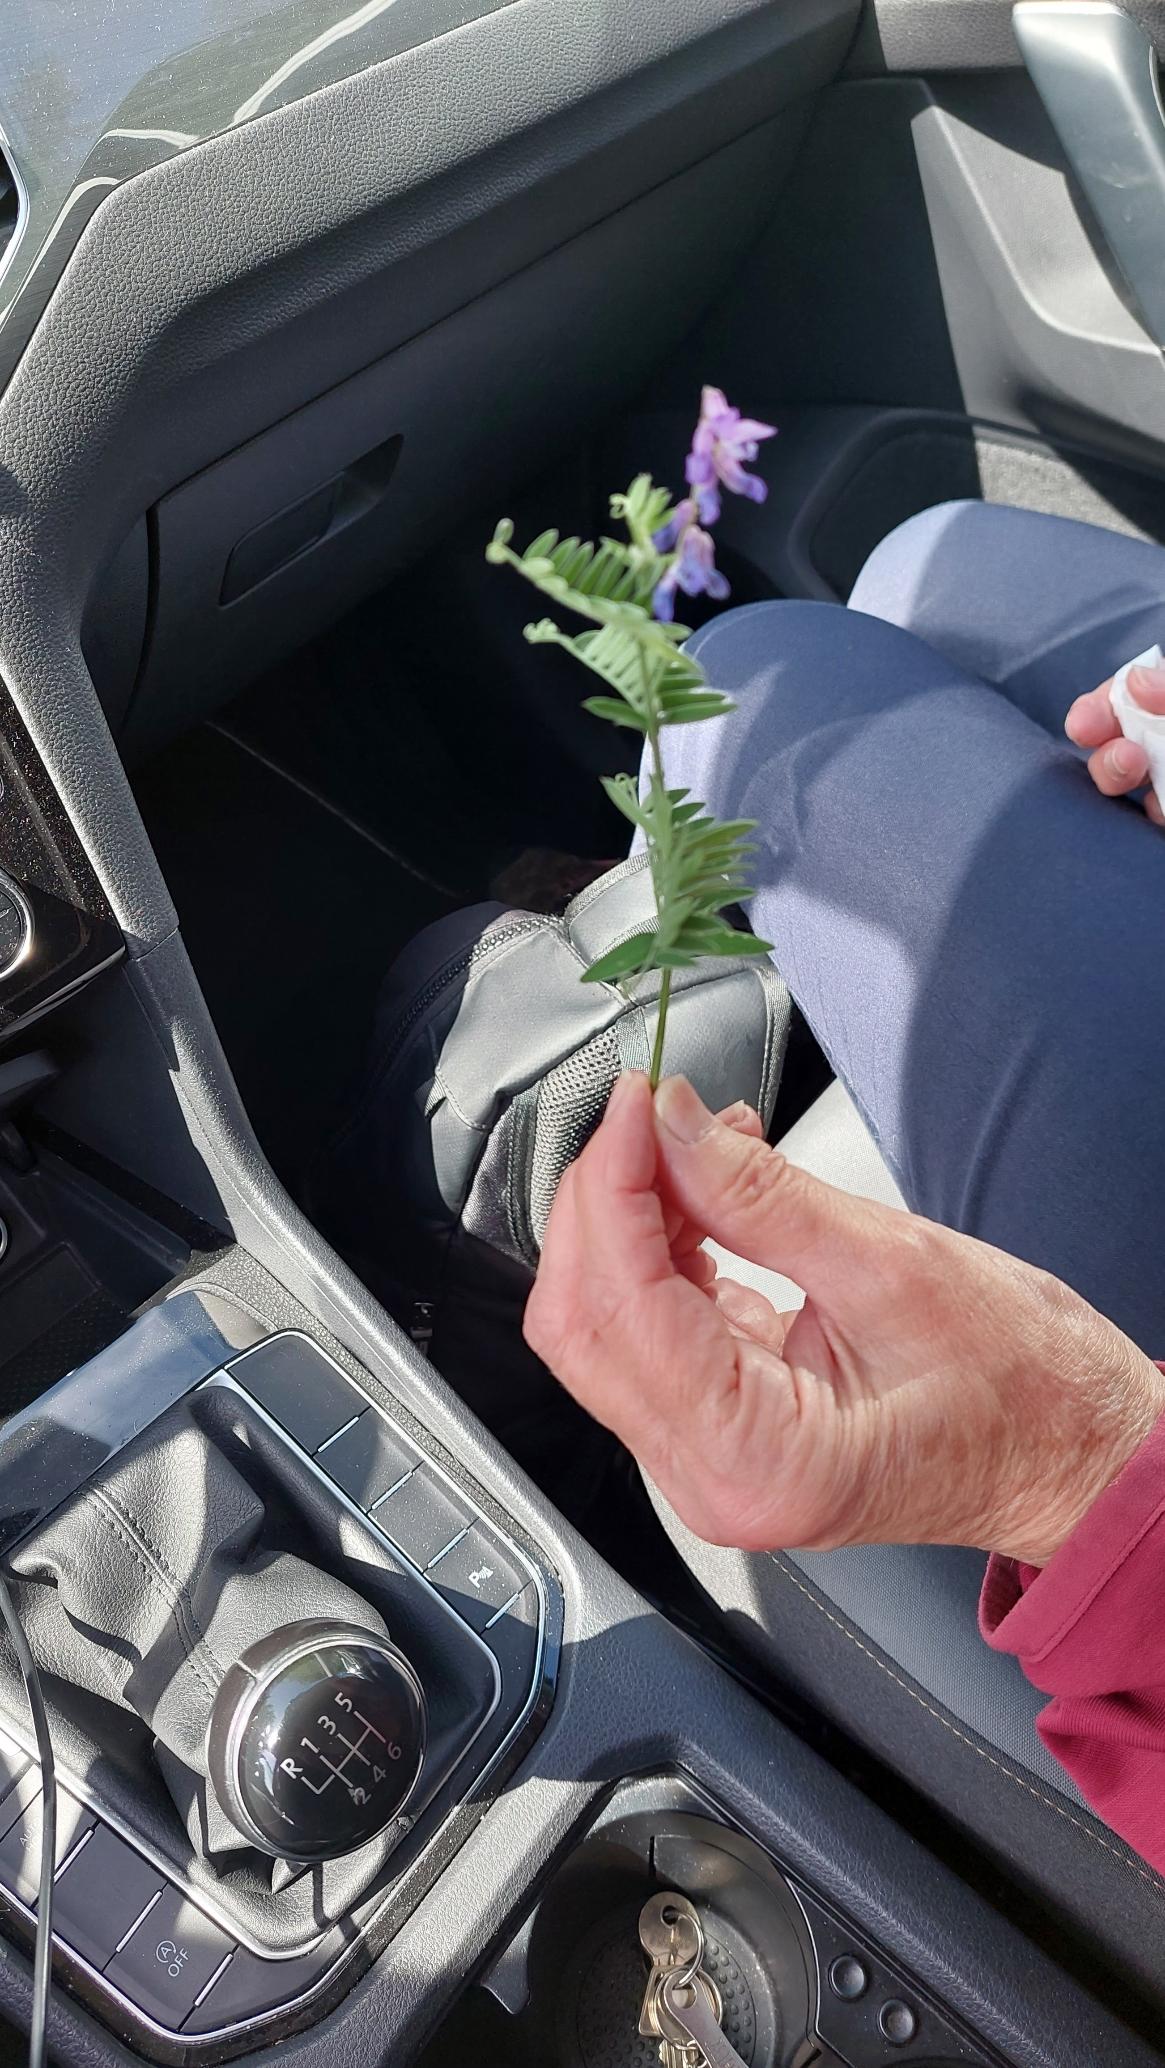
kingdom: Plantae
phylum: Tracheophyta
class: Magnoliopsida
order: Fabales
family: Fabaceae
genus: Vicia
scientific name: Vicia cracca
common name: Muse-vikke
